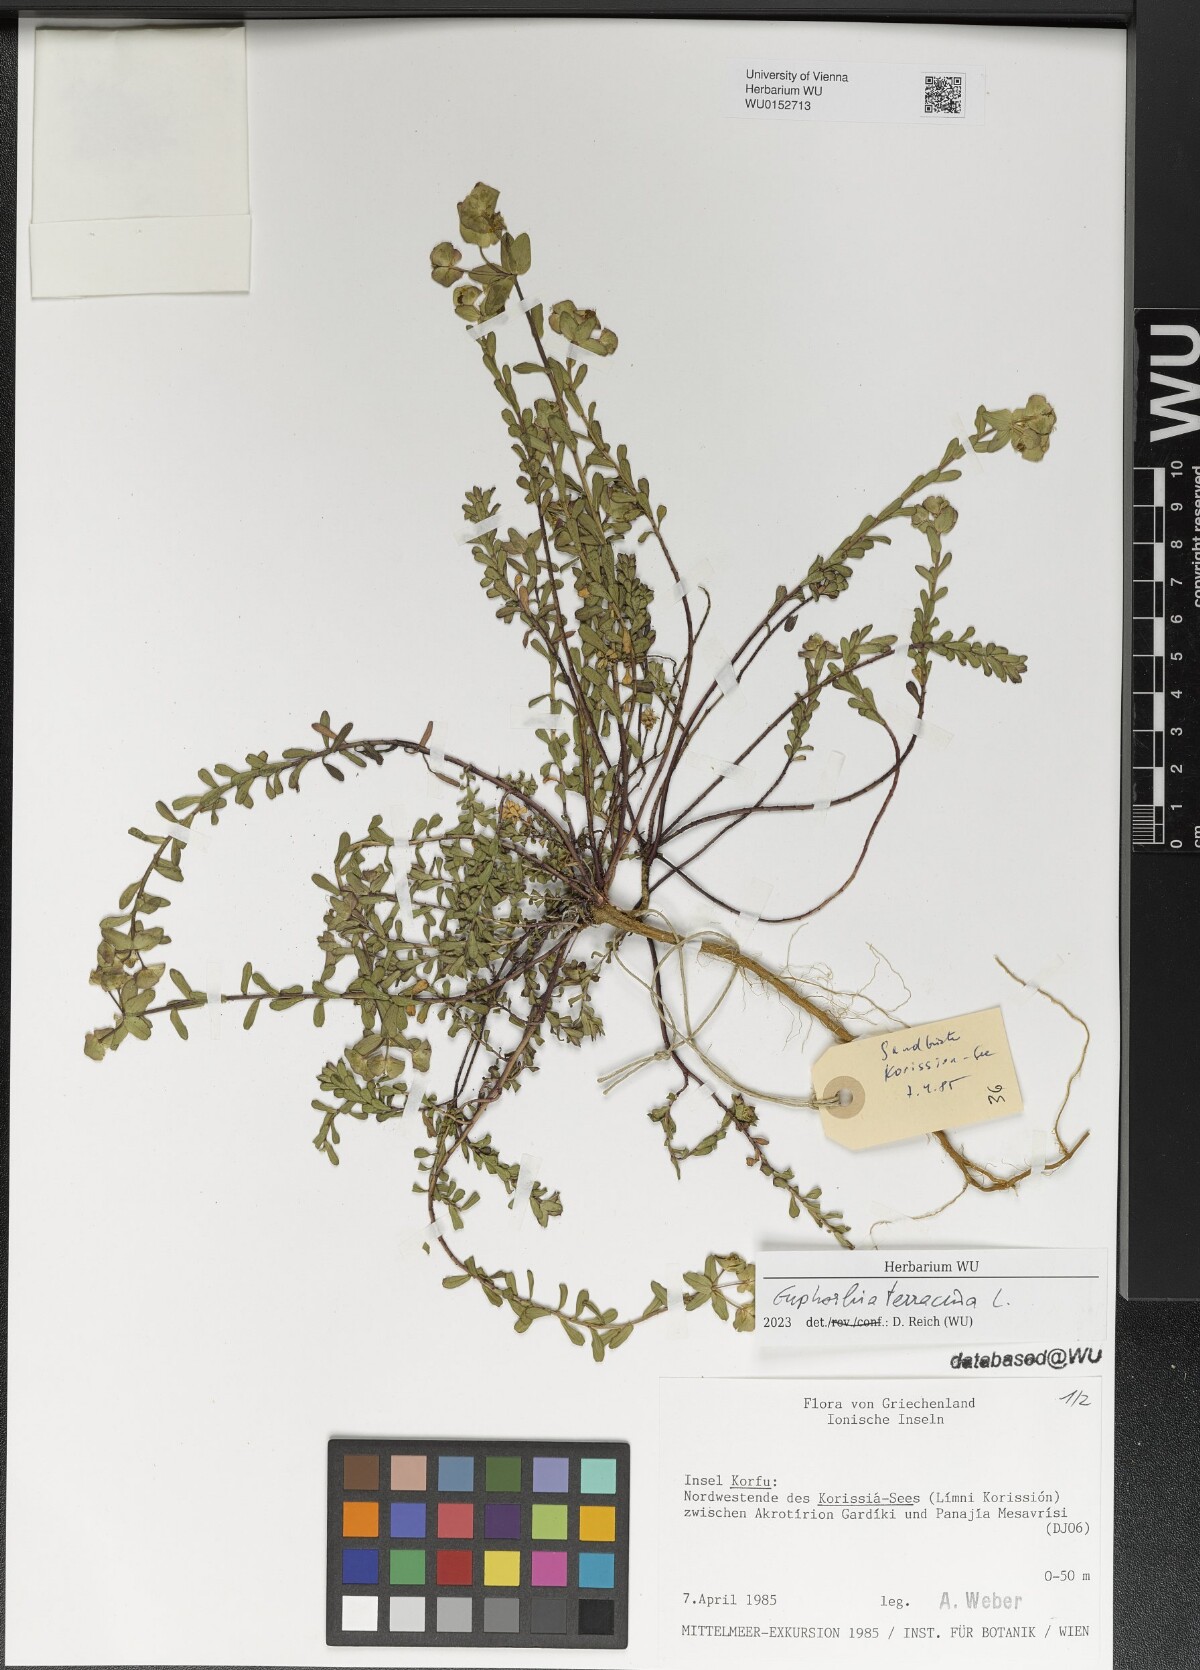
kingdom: Plantae
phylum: Tracheophyta
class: Magnoliopsida
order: Malpighiales
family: Euphorbiaceae
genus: Euphorbia
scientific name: Euphorbia terracina
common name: Geraldton carnation weed
